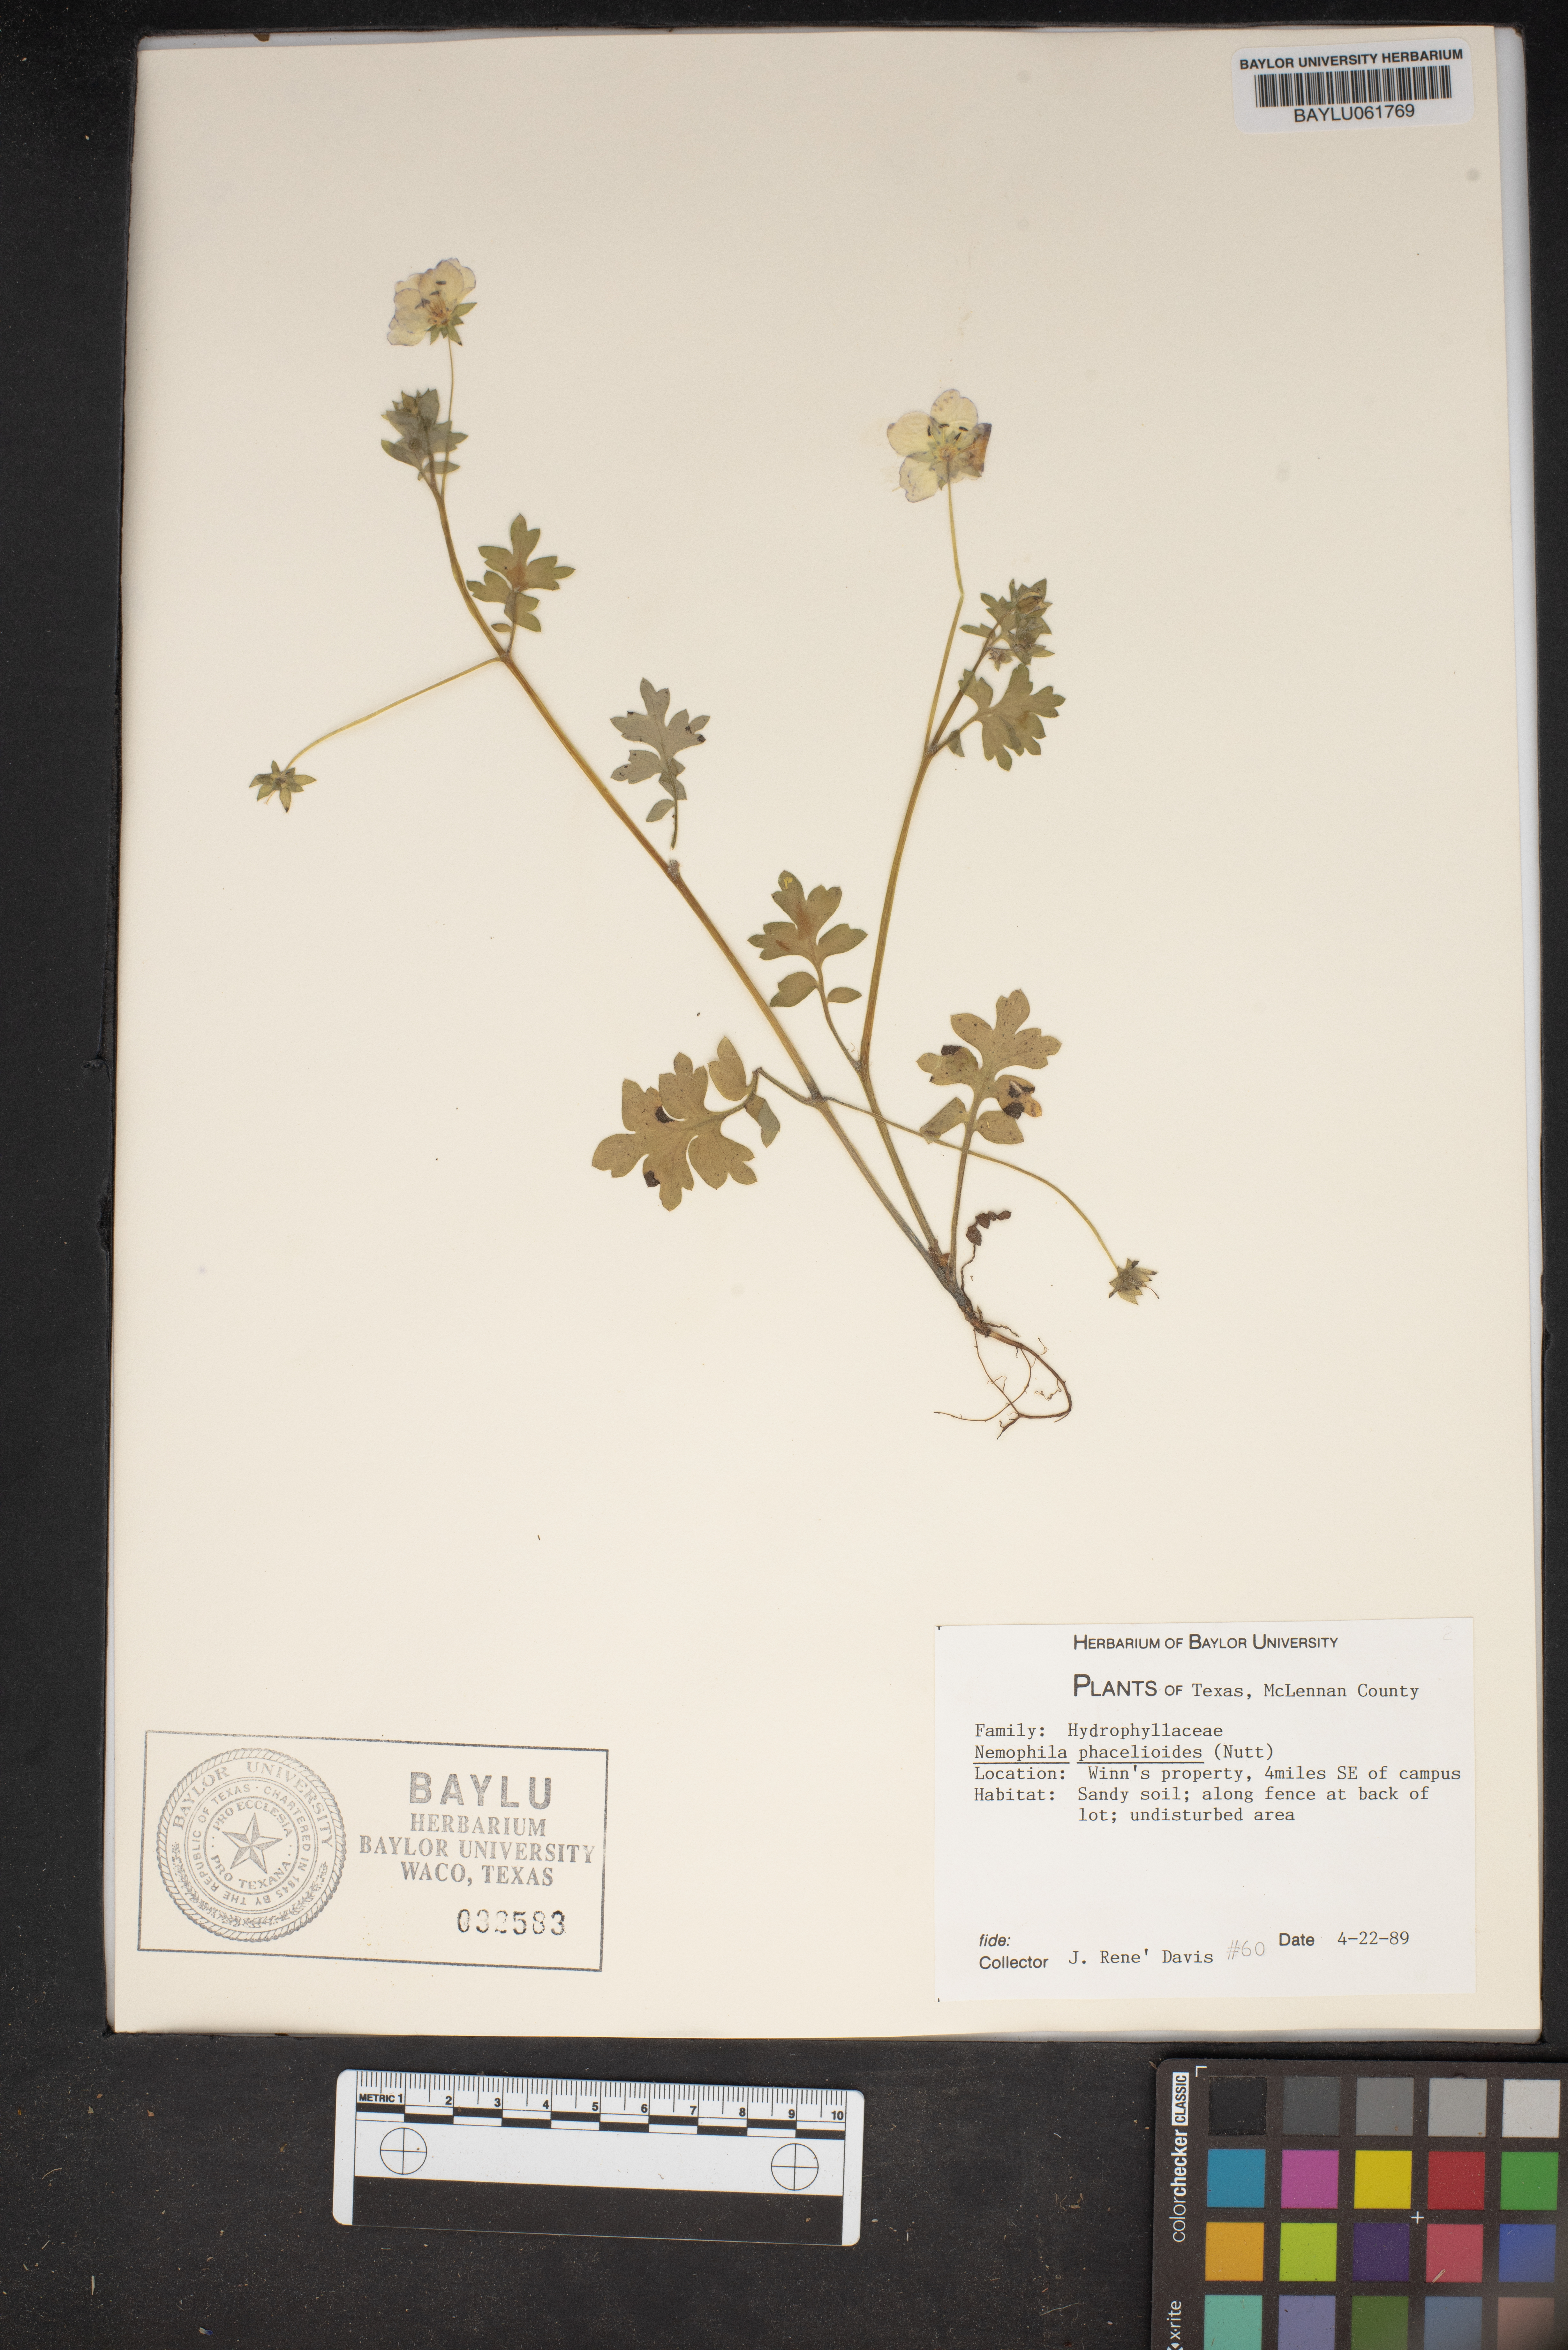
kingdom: Plantae
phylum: Tracheophyta
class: Magnoliopsida
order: Boraginales
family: Hydrophyllaceae
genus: Nemophila
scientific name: Nemophila phacelioides
